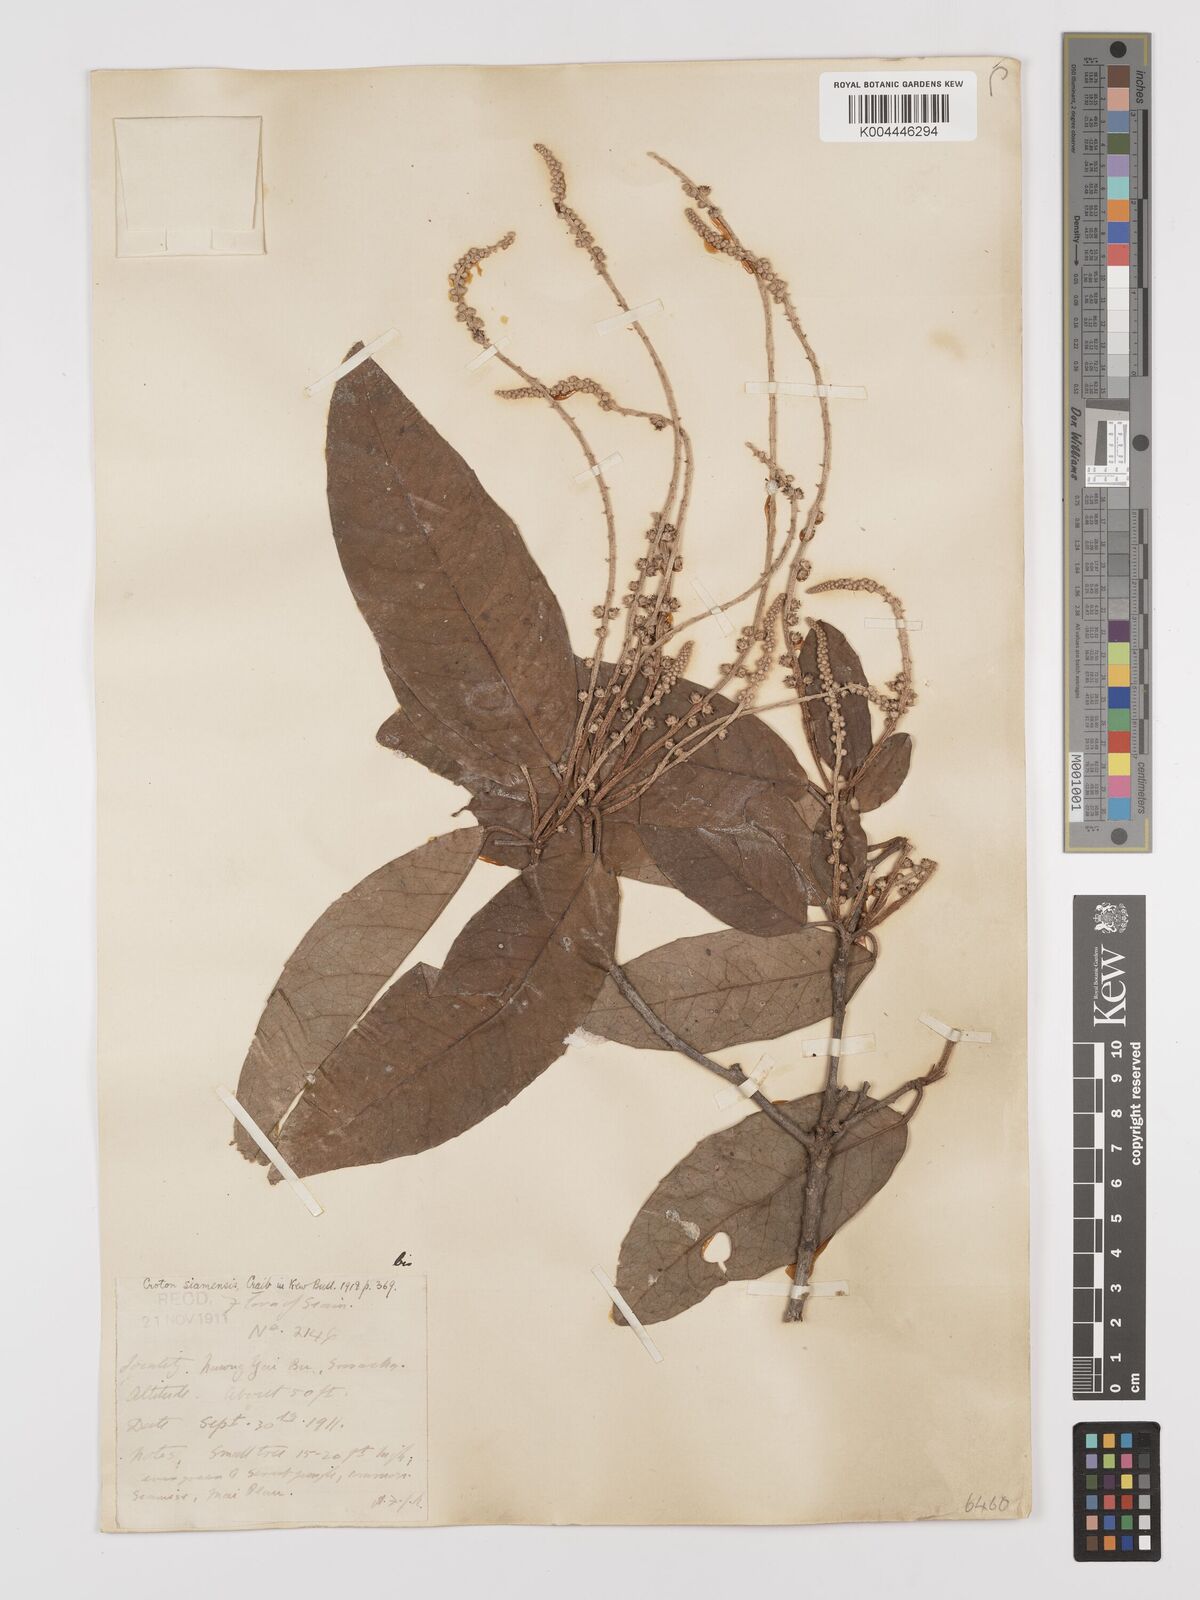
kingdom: Plantae
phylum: Tracheophyta
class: Magnoliopsida
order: Malpighiales
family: Euphorbiaceae
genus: Croton
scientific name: Croton robustus
